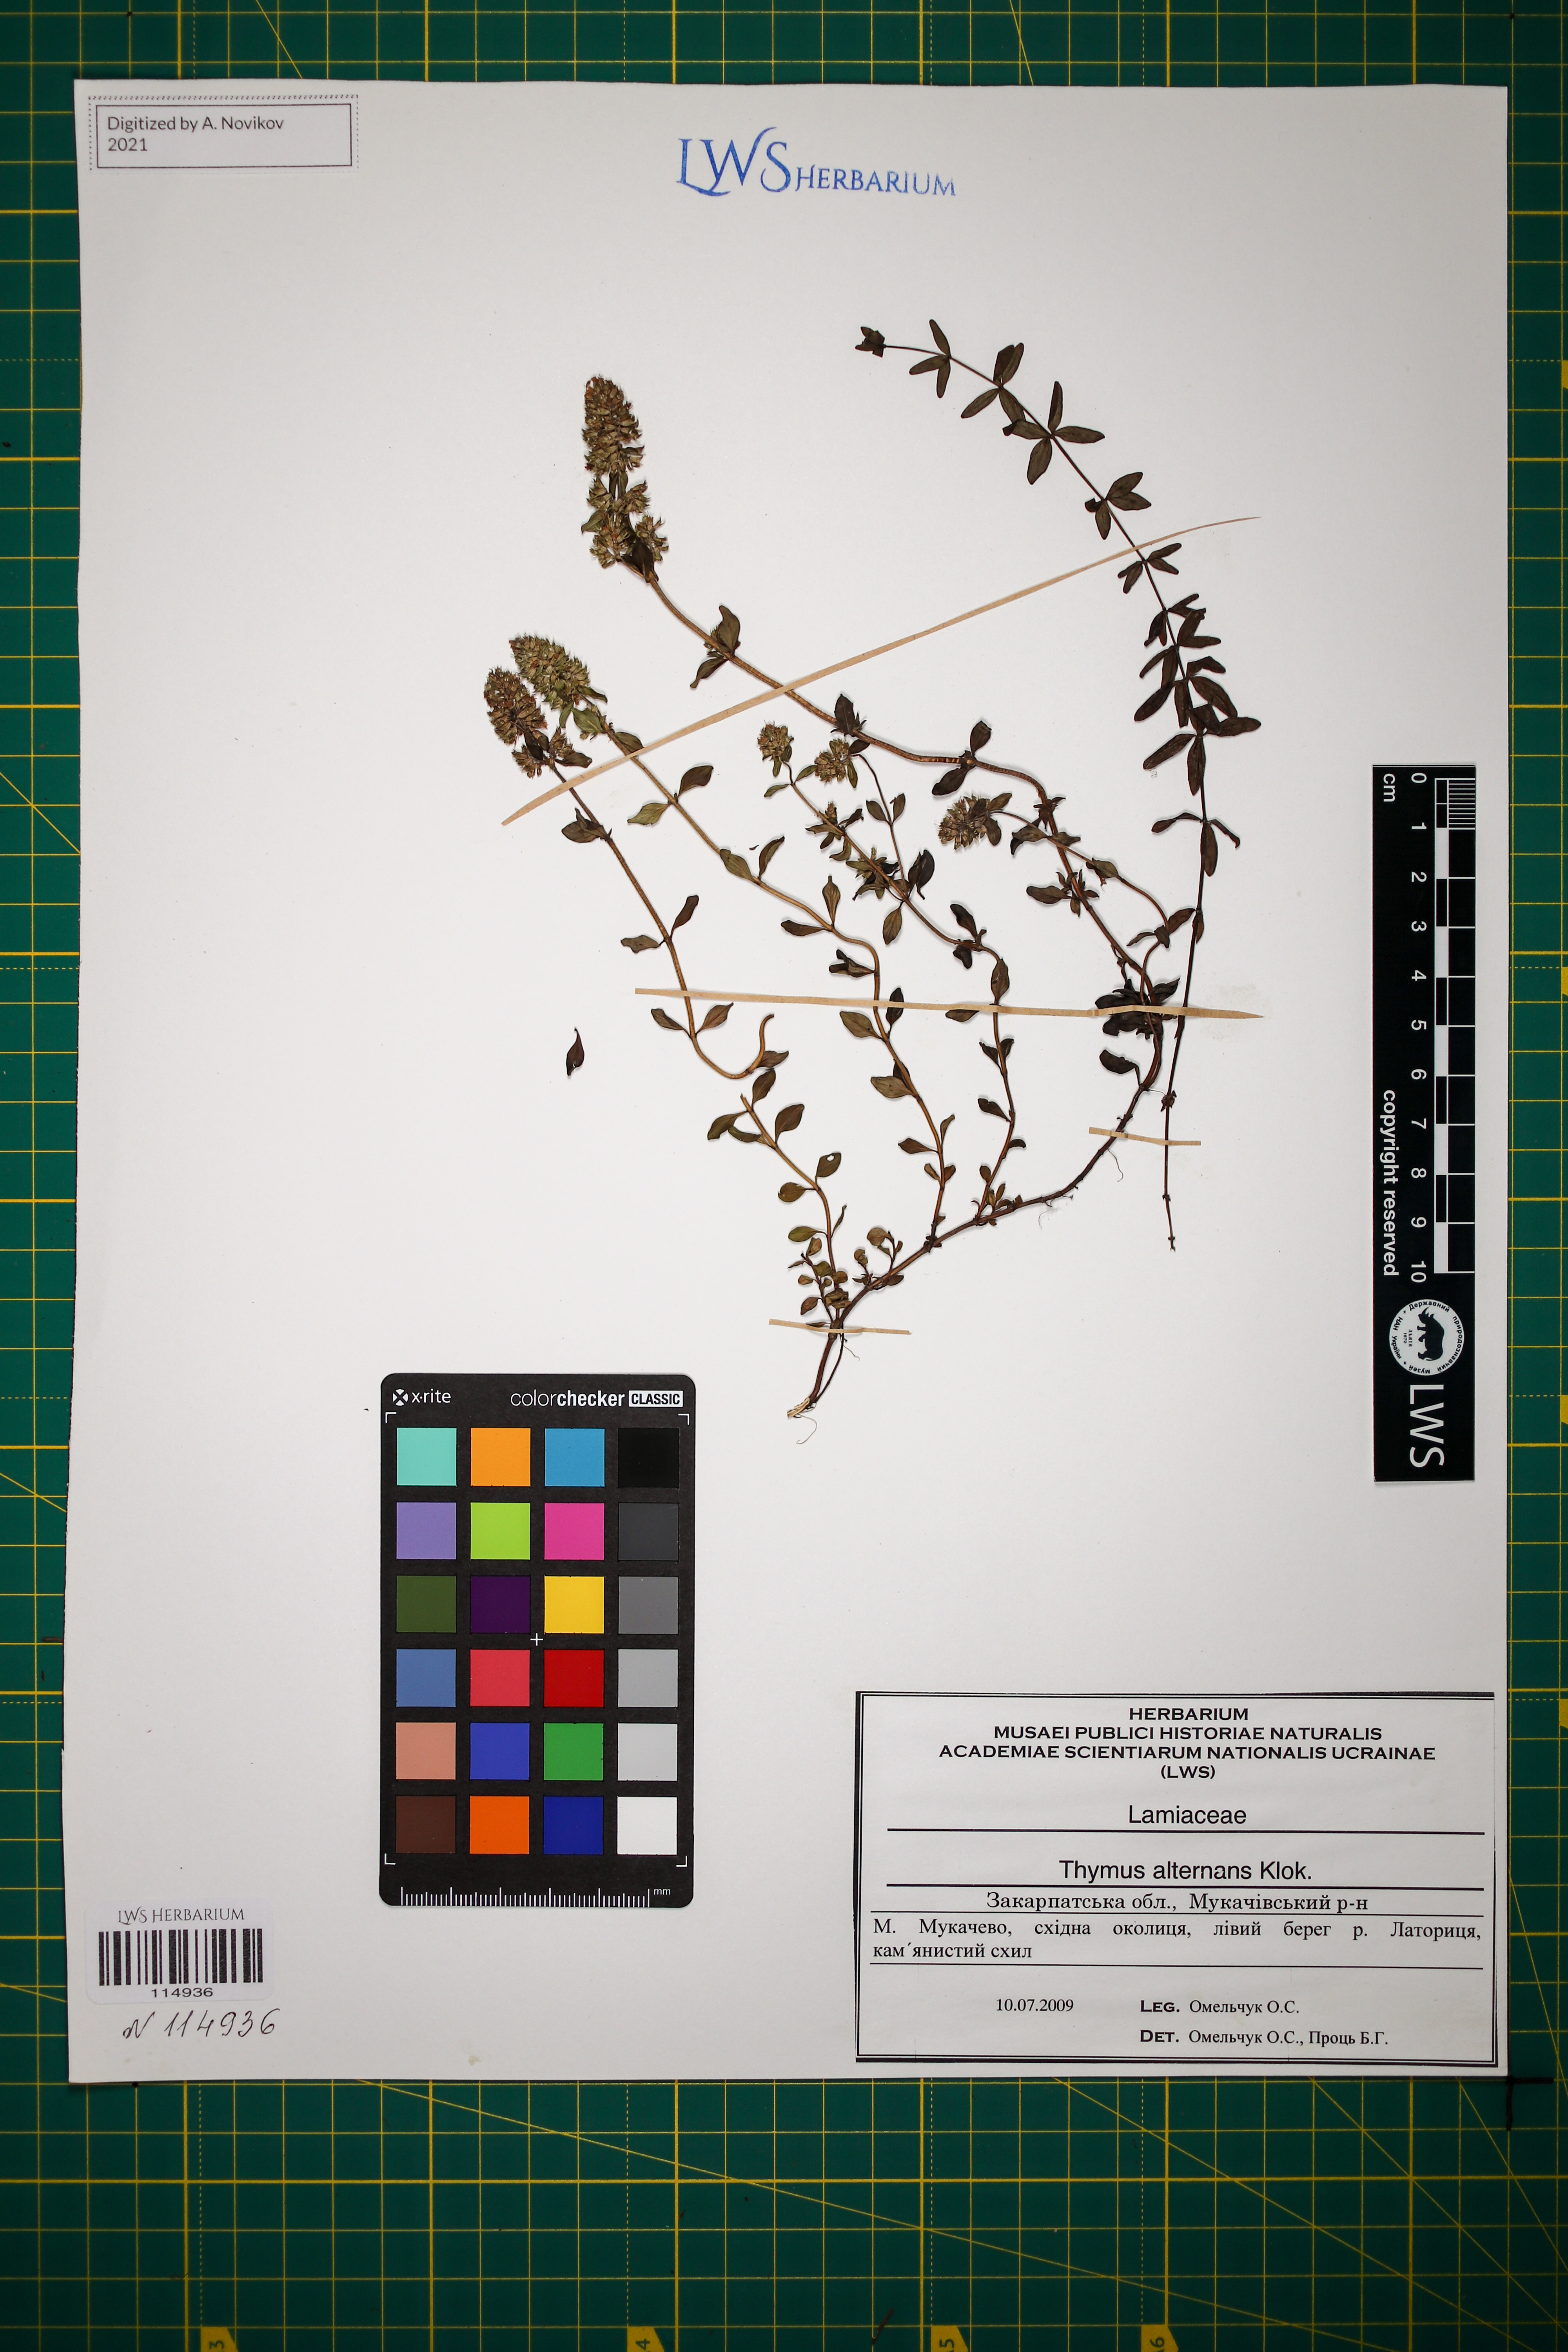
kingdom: Plantae
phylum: Tracheophyta
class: Magnoliopsida
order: Lamiales
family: Lamiaceae
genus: Thymus
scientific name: Thymus alternans
